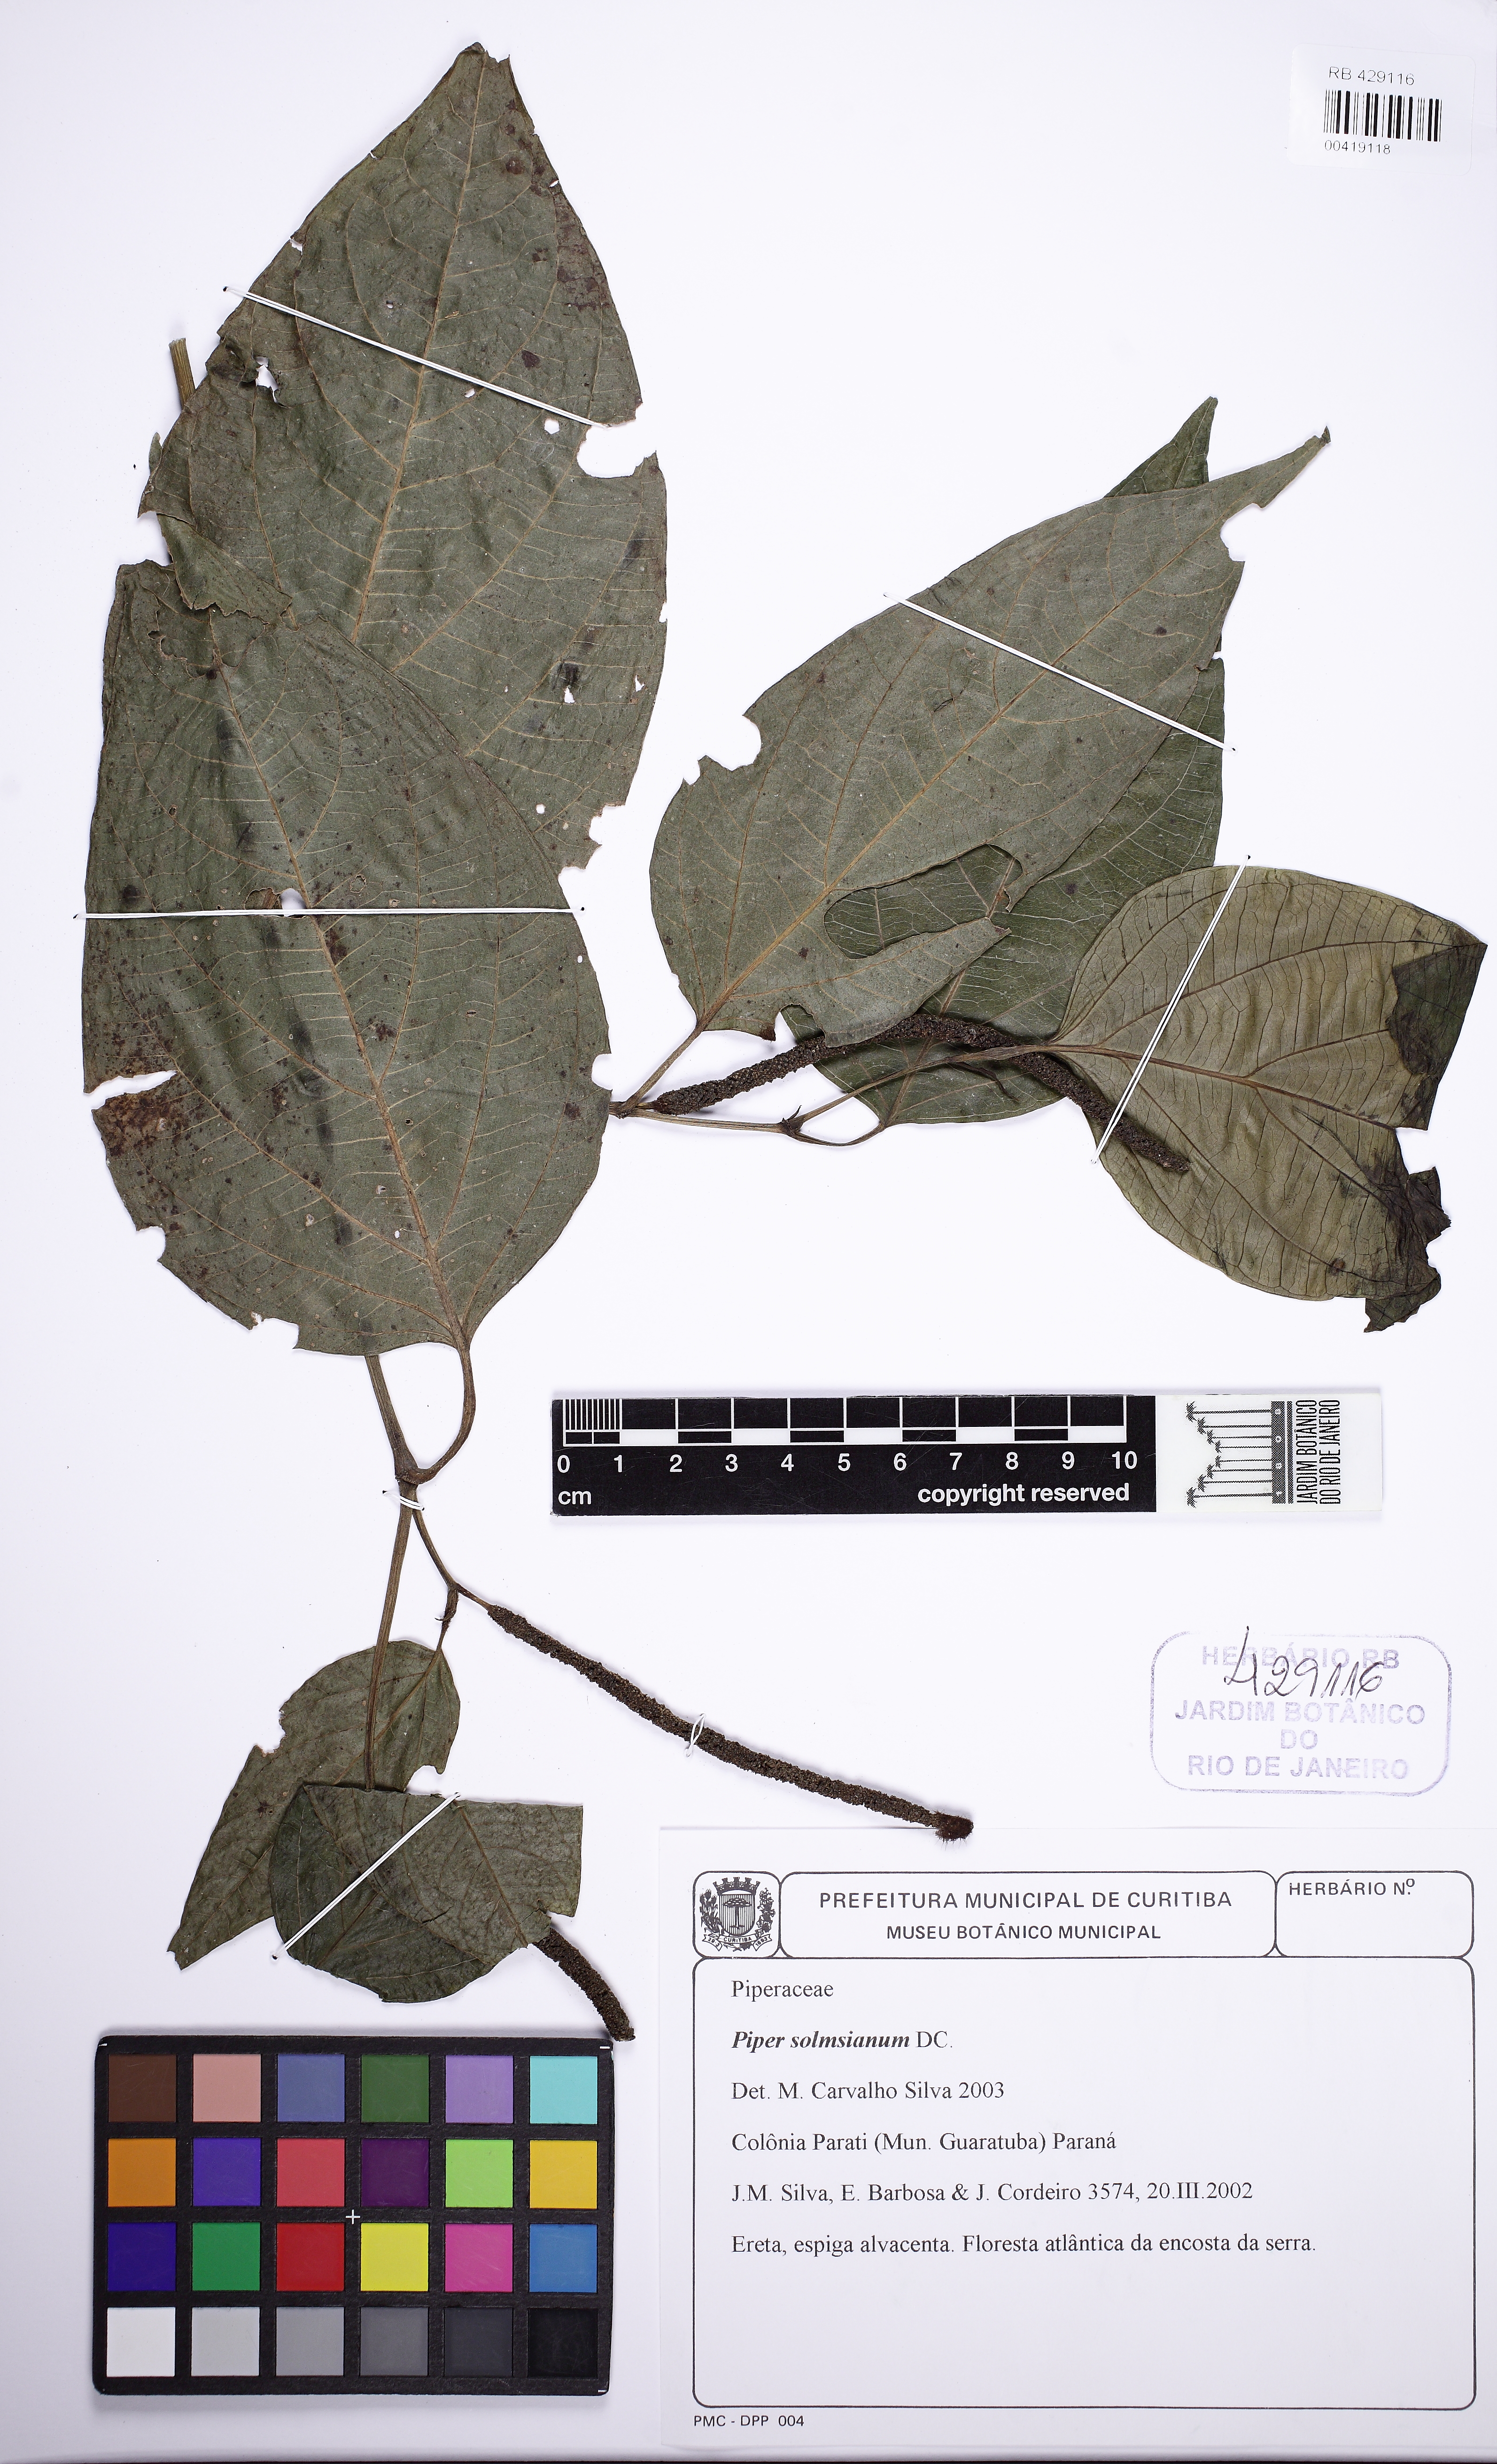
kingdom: Plantae
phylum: Tracheophyta
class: Magnoliopsida
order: Piperales
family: Piperaceae
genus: Piper
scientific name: Piper solmsianum
